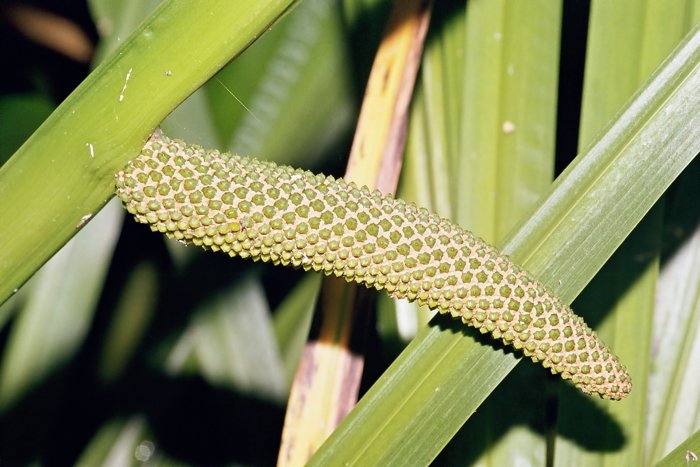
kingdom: Plantae
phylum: Tracheophyta
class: Liliopsida
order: Acorales
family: Acoraceae
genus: Acorus
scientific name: Acorus calamus
